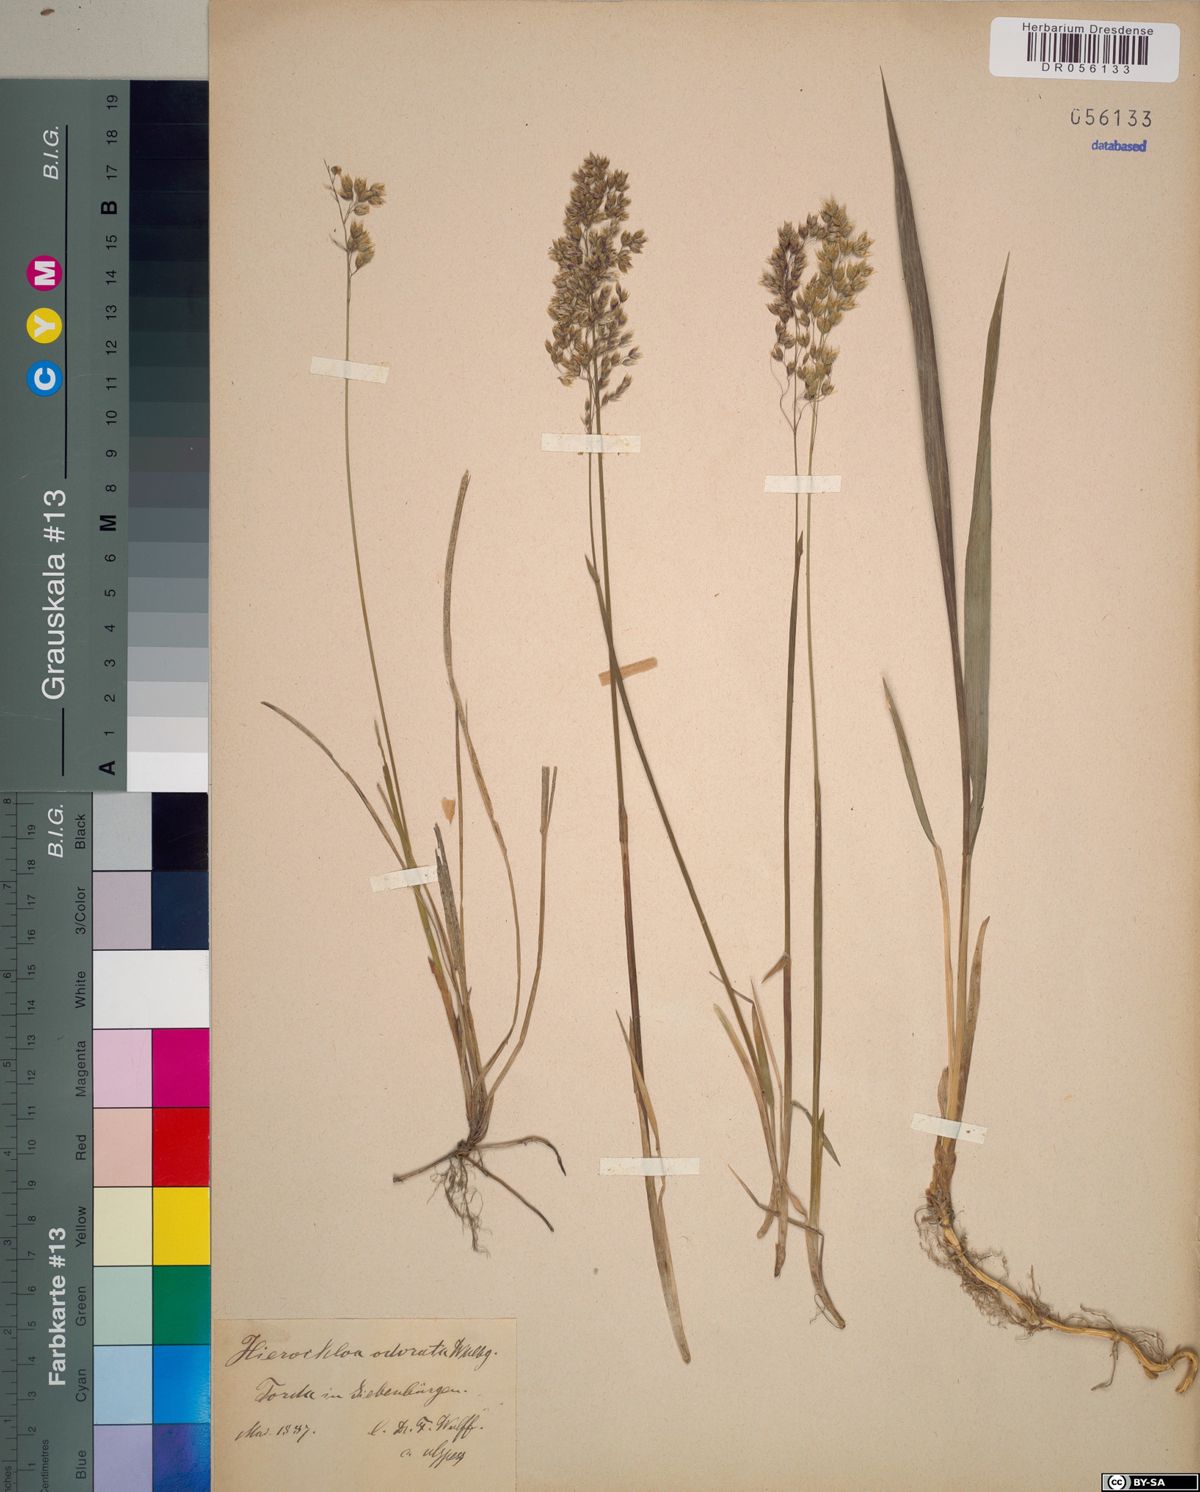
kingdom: Plantae
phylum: Tracheophyta
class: Liliopsida
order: Poales
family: Poaceae
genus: Anthoxanthum
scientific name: Anthoxanthum nitens
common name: Holy grass
